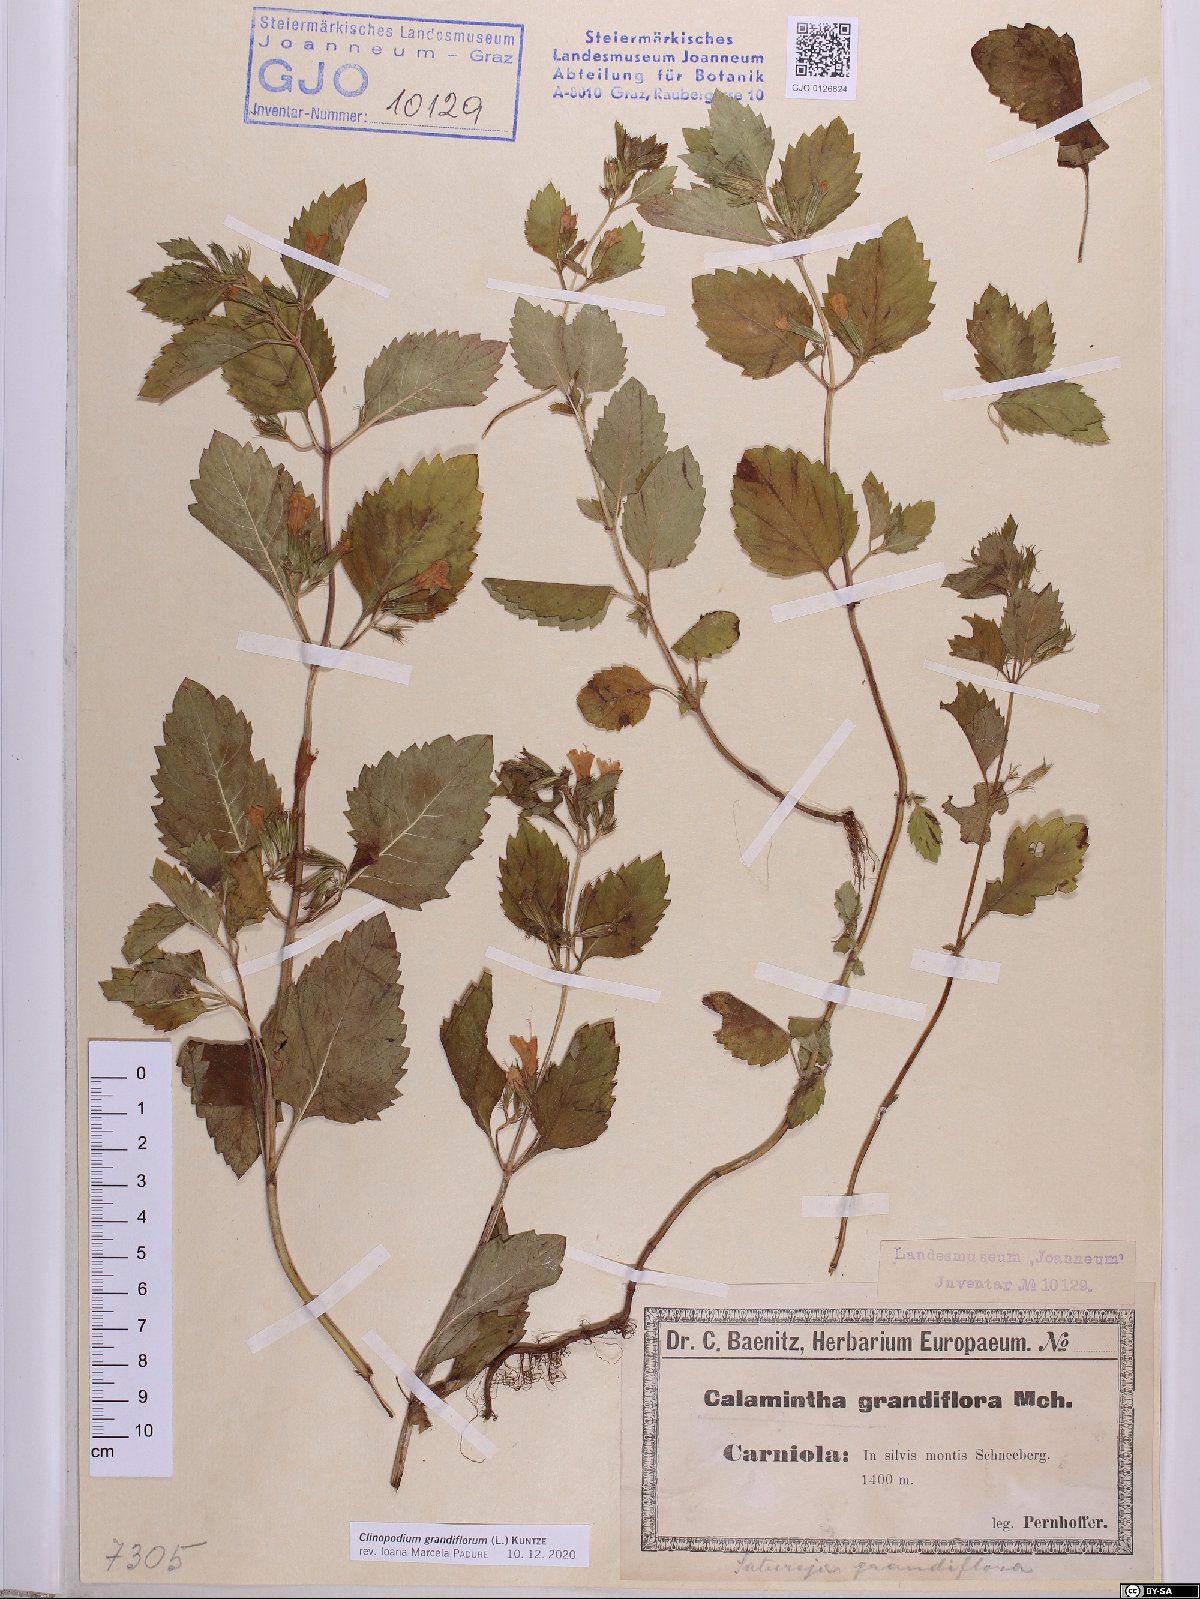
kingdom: Plantae
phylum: Tracheophyta
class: Magnoliopsida
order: Lamiales
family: Lamiaceae
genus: Clinopodium
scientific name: Clinopodium grandiflorum
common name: Greater calamint
